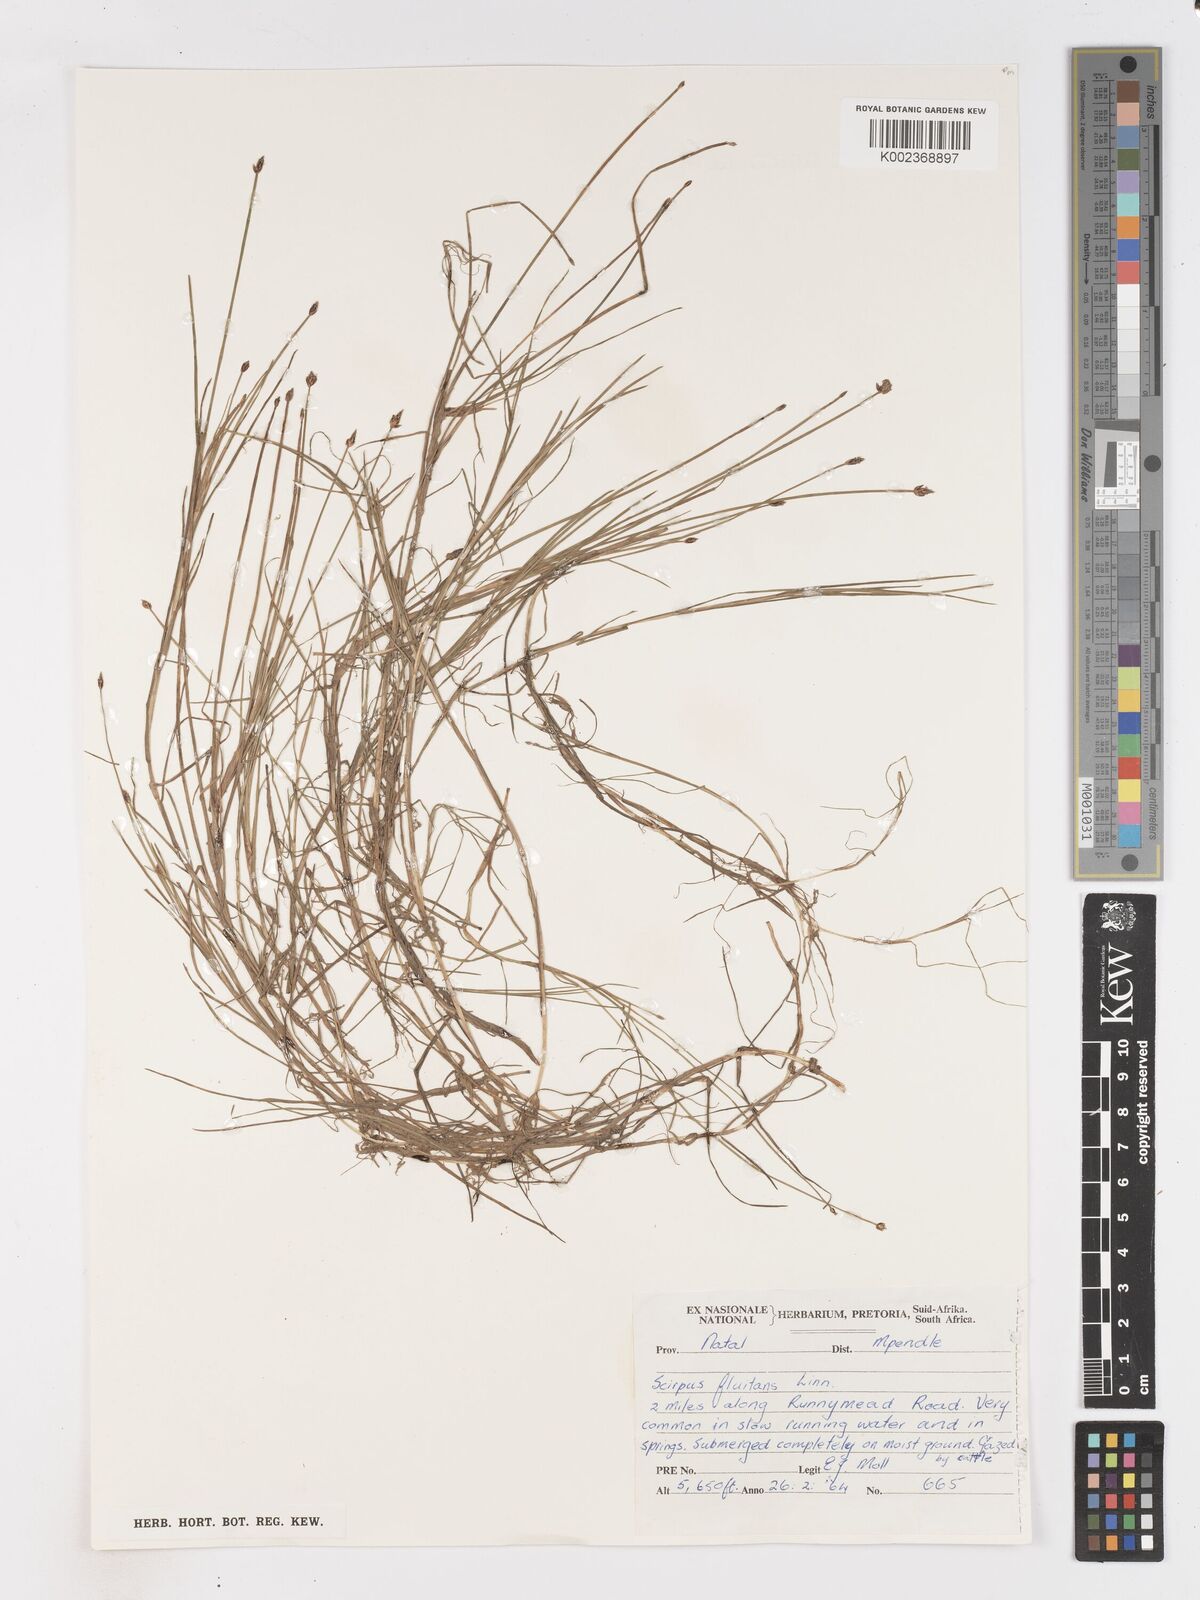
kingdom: Plantae
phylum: Tracheophyta
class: Liliopsida
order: Poales
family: Cyperaceae
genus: Isolepis
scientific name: Isolepis fluitans
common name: Floating club-rush
